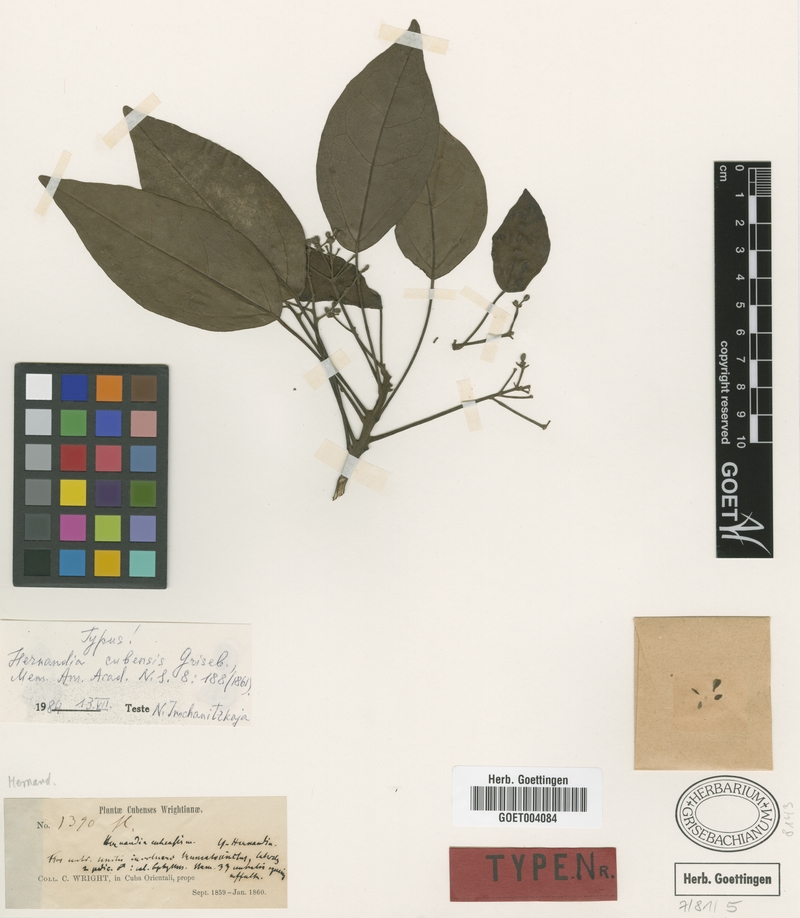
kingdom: Plantae
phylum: Tracheophyta
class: Magnoliopsida
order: Laurales
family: Hernandiaceae
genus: Hernandia
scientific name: Hernandia cubensis
